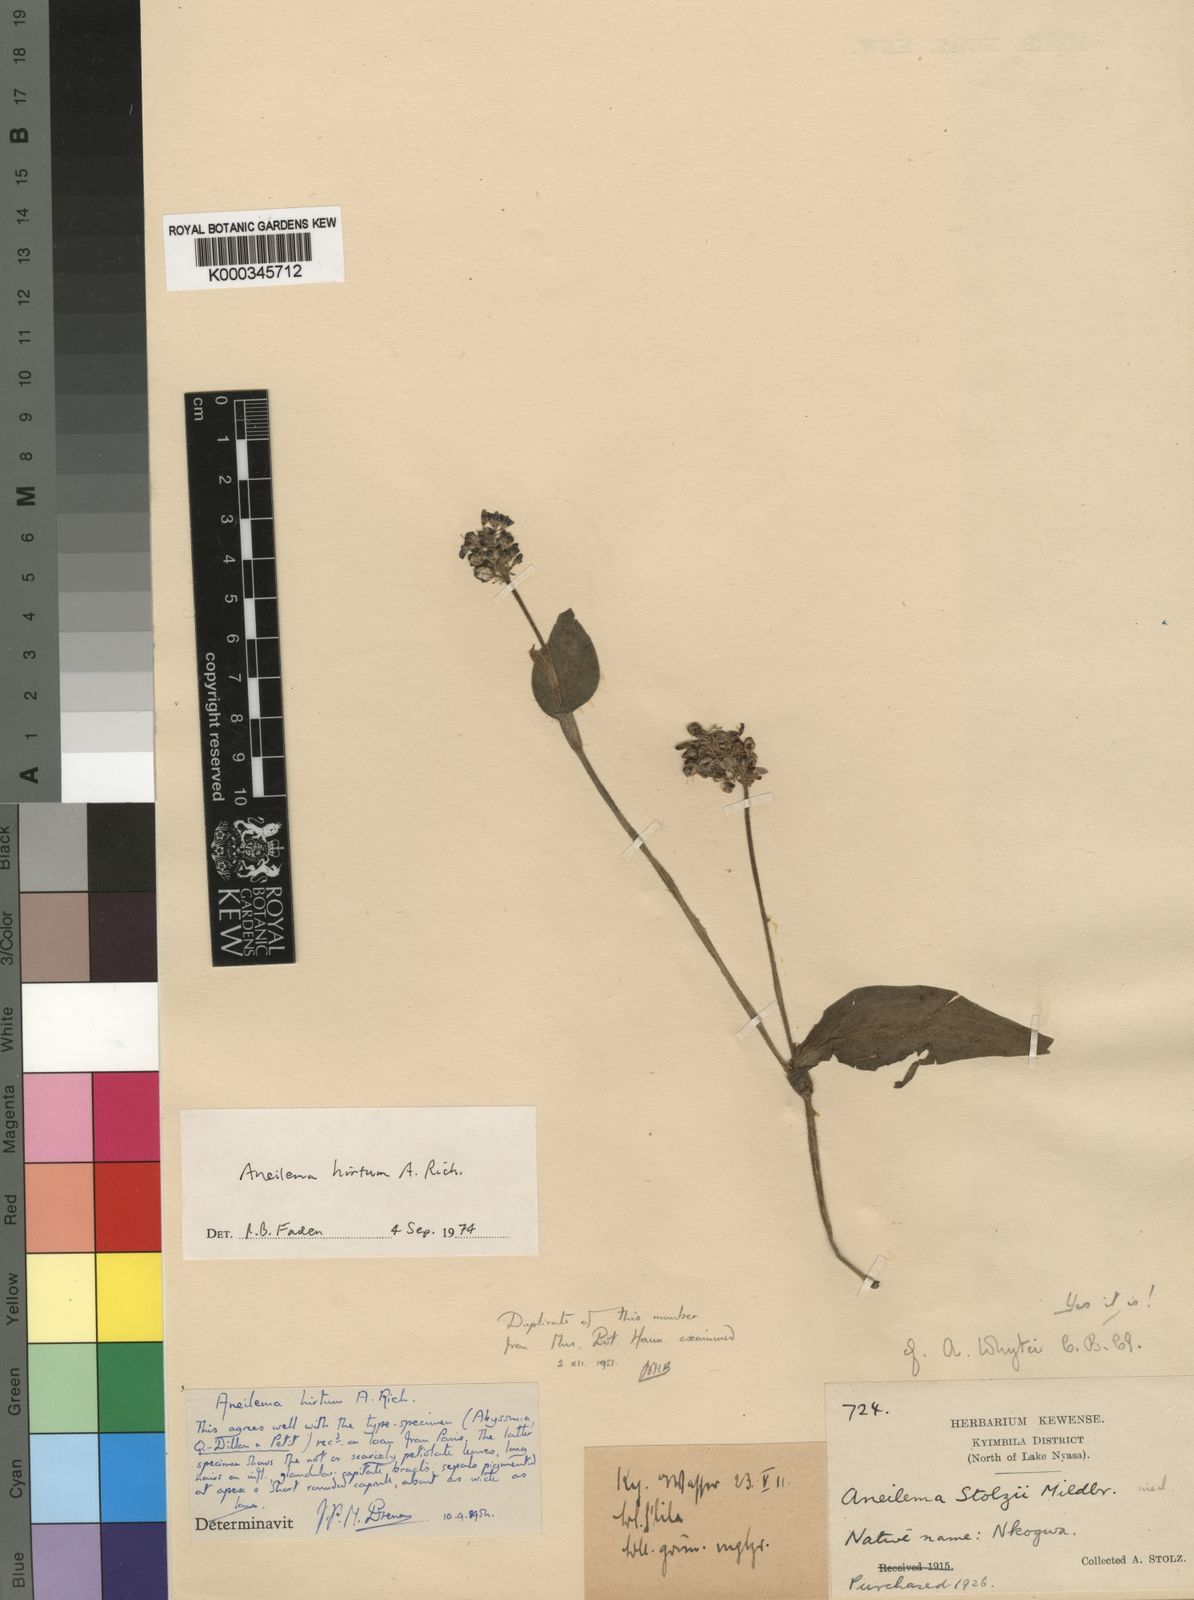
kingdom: Plantae
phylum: Tracheophyta
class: Liliopsida
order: Commelinales
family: Commelinaceae
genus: Aneilema
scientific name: Aneilema hirtum
